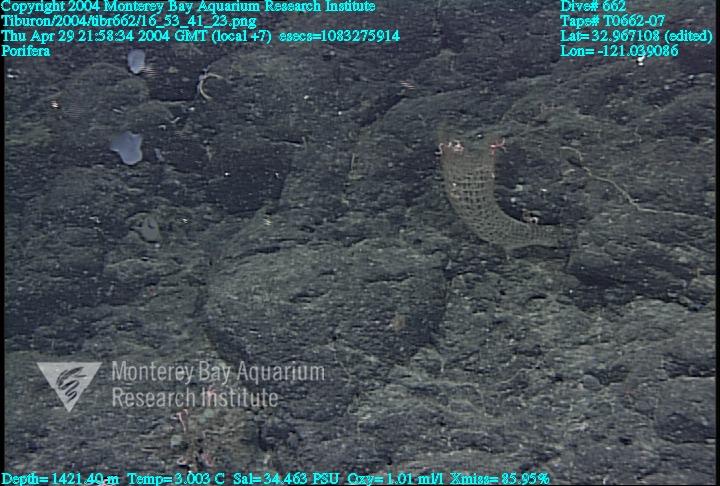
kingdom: Animalia
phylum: Porifera
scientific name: Porifera
